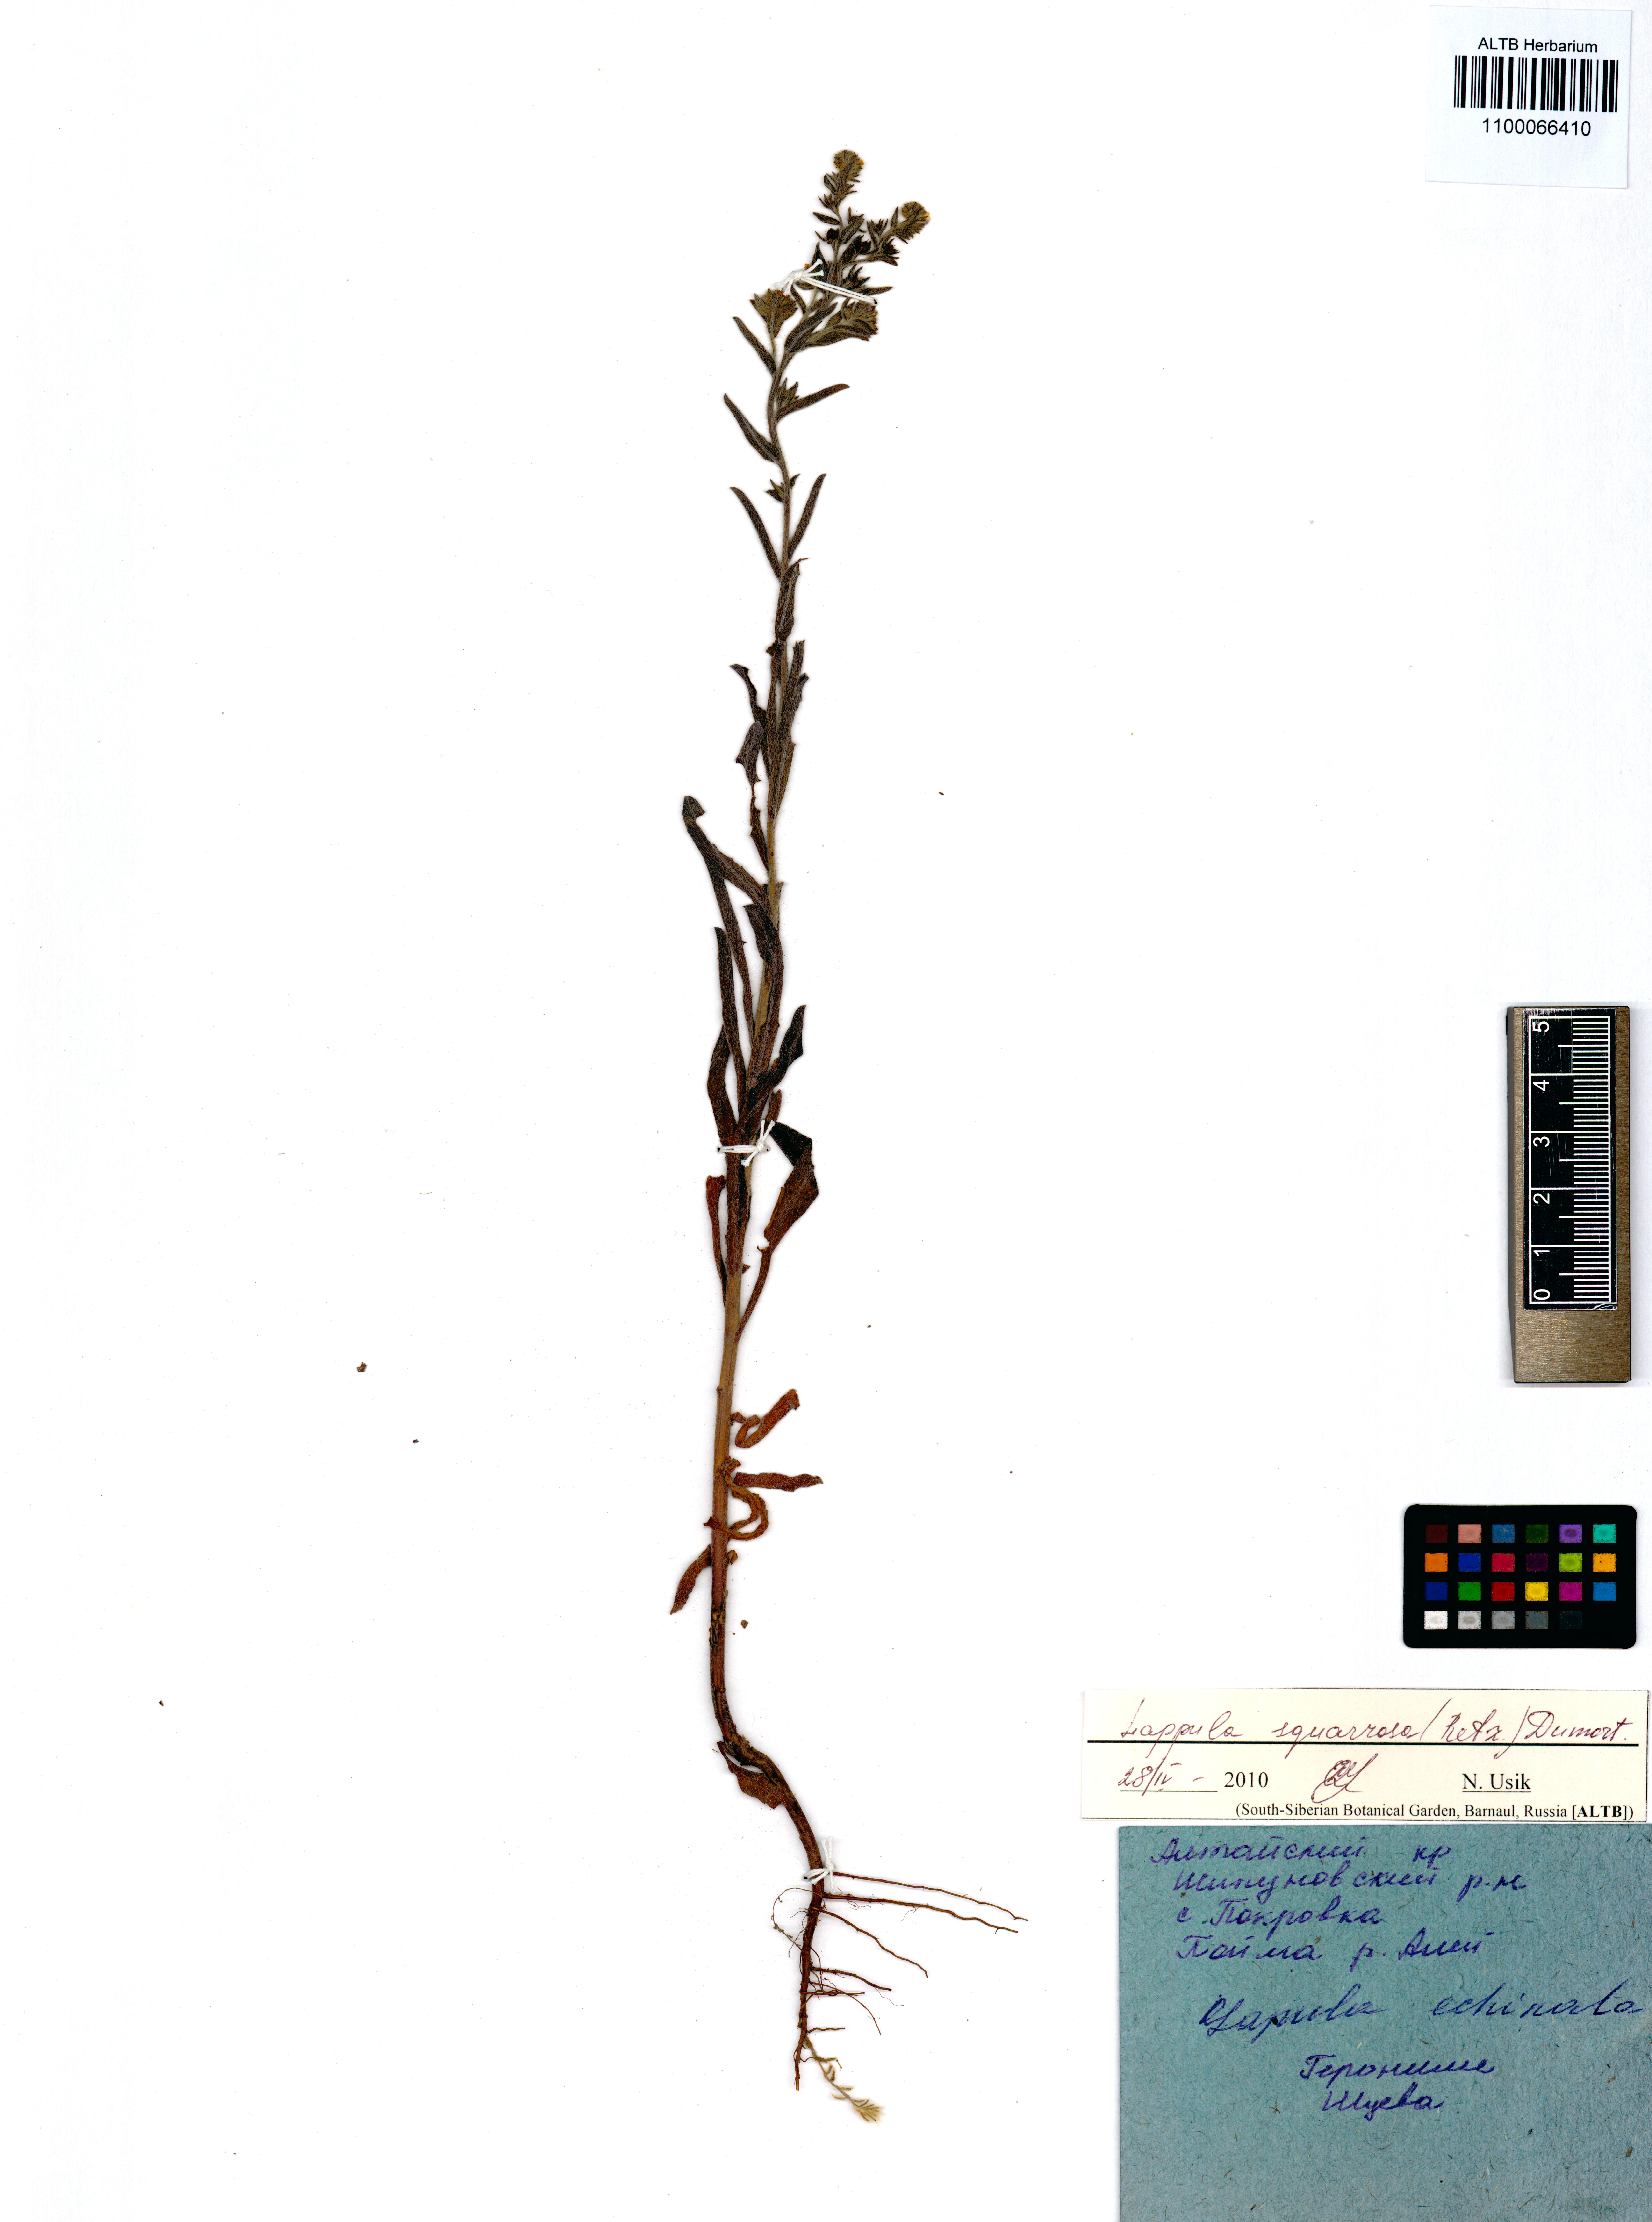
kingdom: Plantae
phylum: Tracheophyta
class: Magnoliopsida
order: Boraginales
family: Boraginaceae
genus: Lappula
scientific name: Lappula squarrosa
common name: European stickseed
